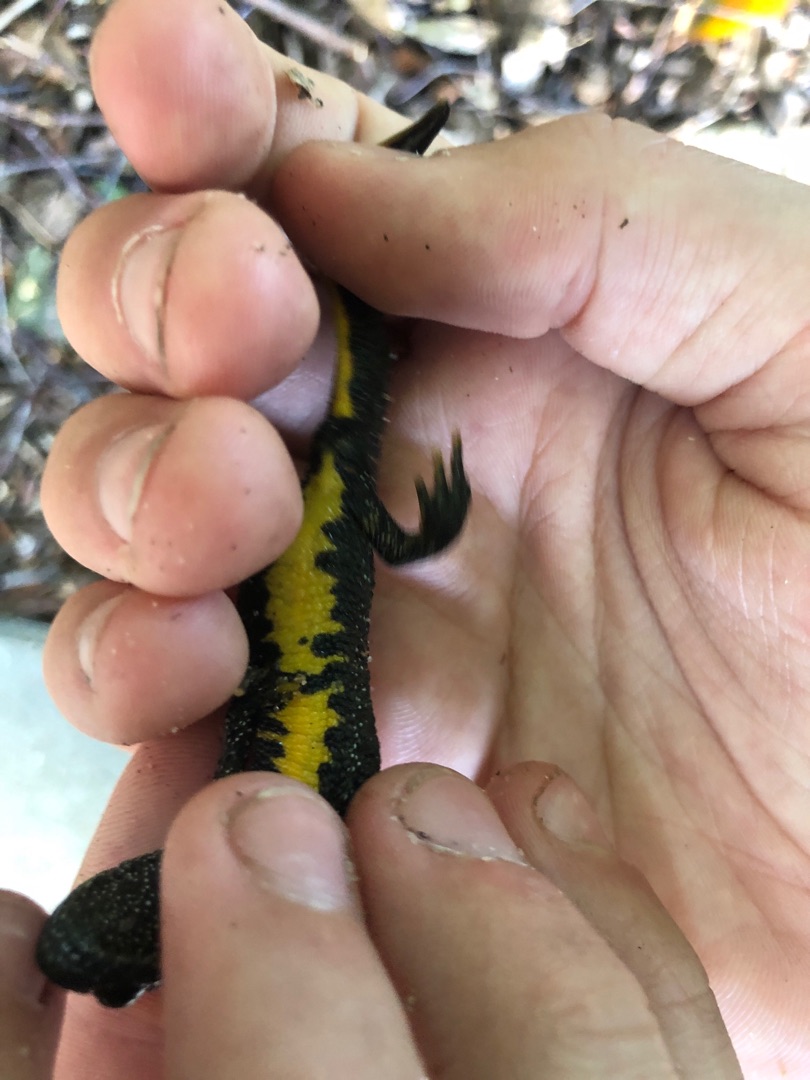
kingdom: Animalia
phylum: Chordata
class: Amphibia
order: Caudata
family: Salamandridae
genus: Triturus
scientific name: Triturus cristatus
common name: Stor vandsalamander
